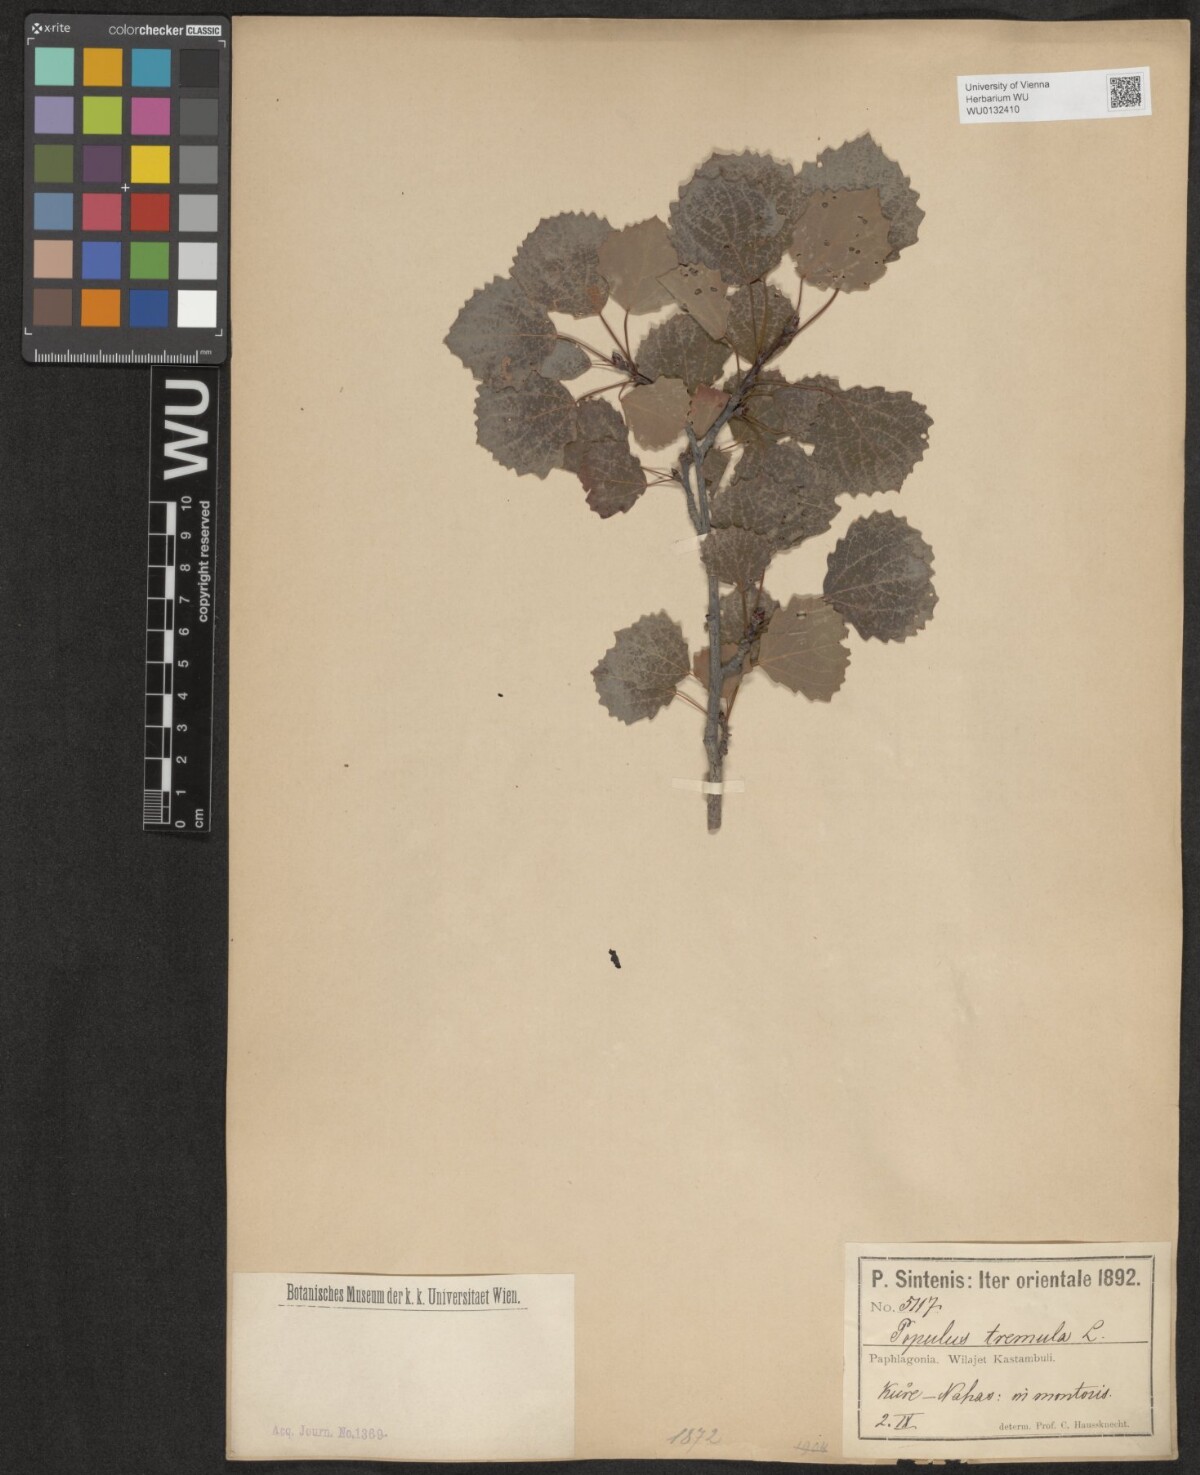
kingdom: Plantae
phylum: Tracheophyta
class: Magnoliopsida
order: Malpighiales
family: Salicaceae
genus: Populus
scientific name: Populus tremula
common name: European aspen
